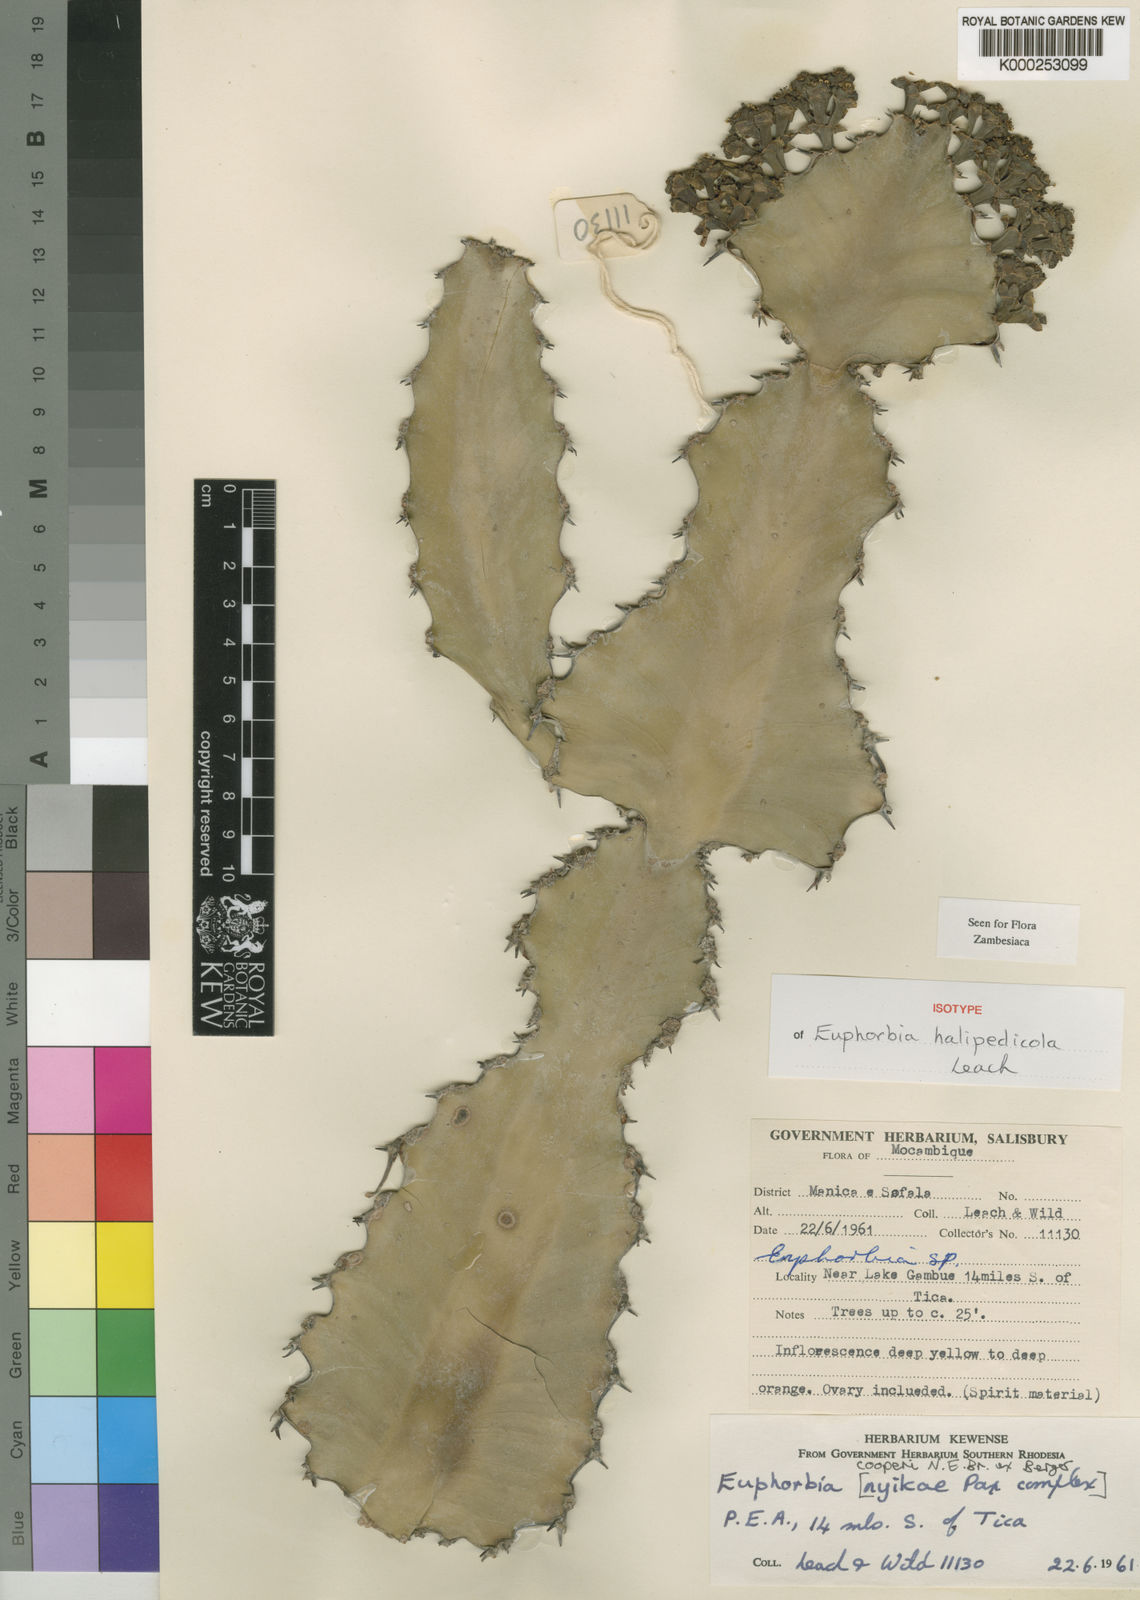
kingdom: Plantae
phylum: Tracheophyta
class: Magnoliopsida
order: Malpighiales
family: Euphorbiaceae
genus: Euphorbia
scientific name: Euphorbia halipedicola
